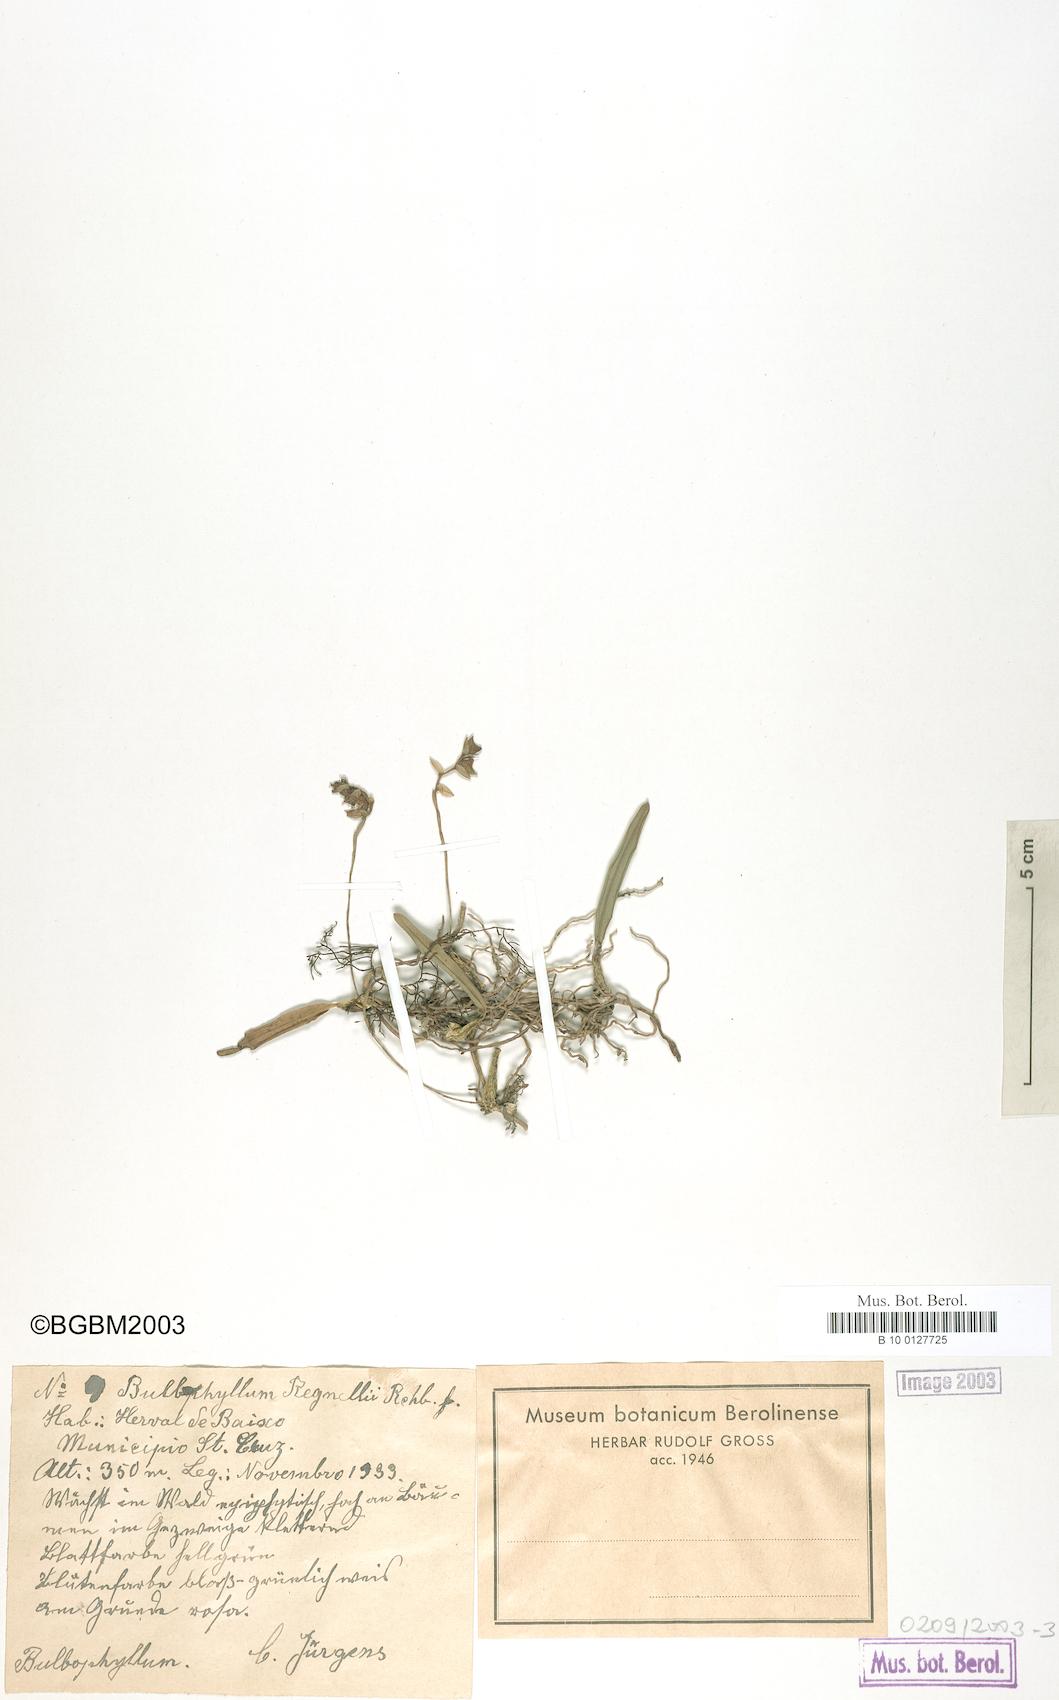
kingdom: Plantae
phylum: Tracheophyta
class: Liliopsida
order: Asparagales
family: Orchidaceae
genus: Bulbophyllum
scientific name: Bulbophyllum regnellii
